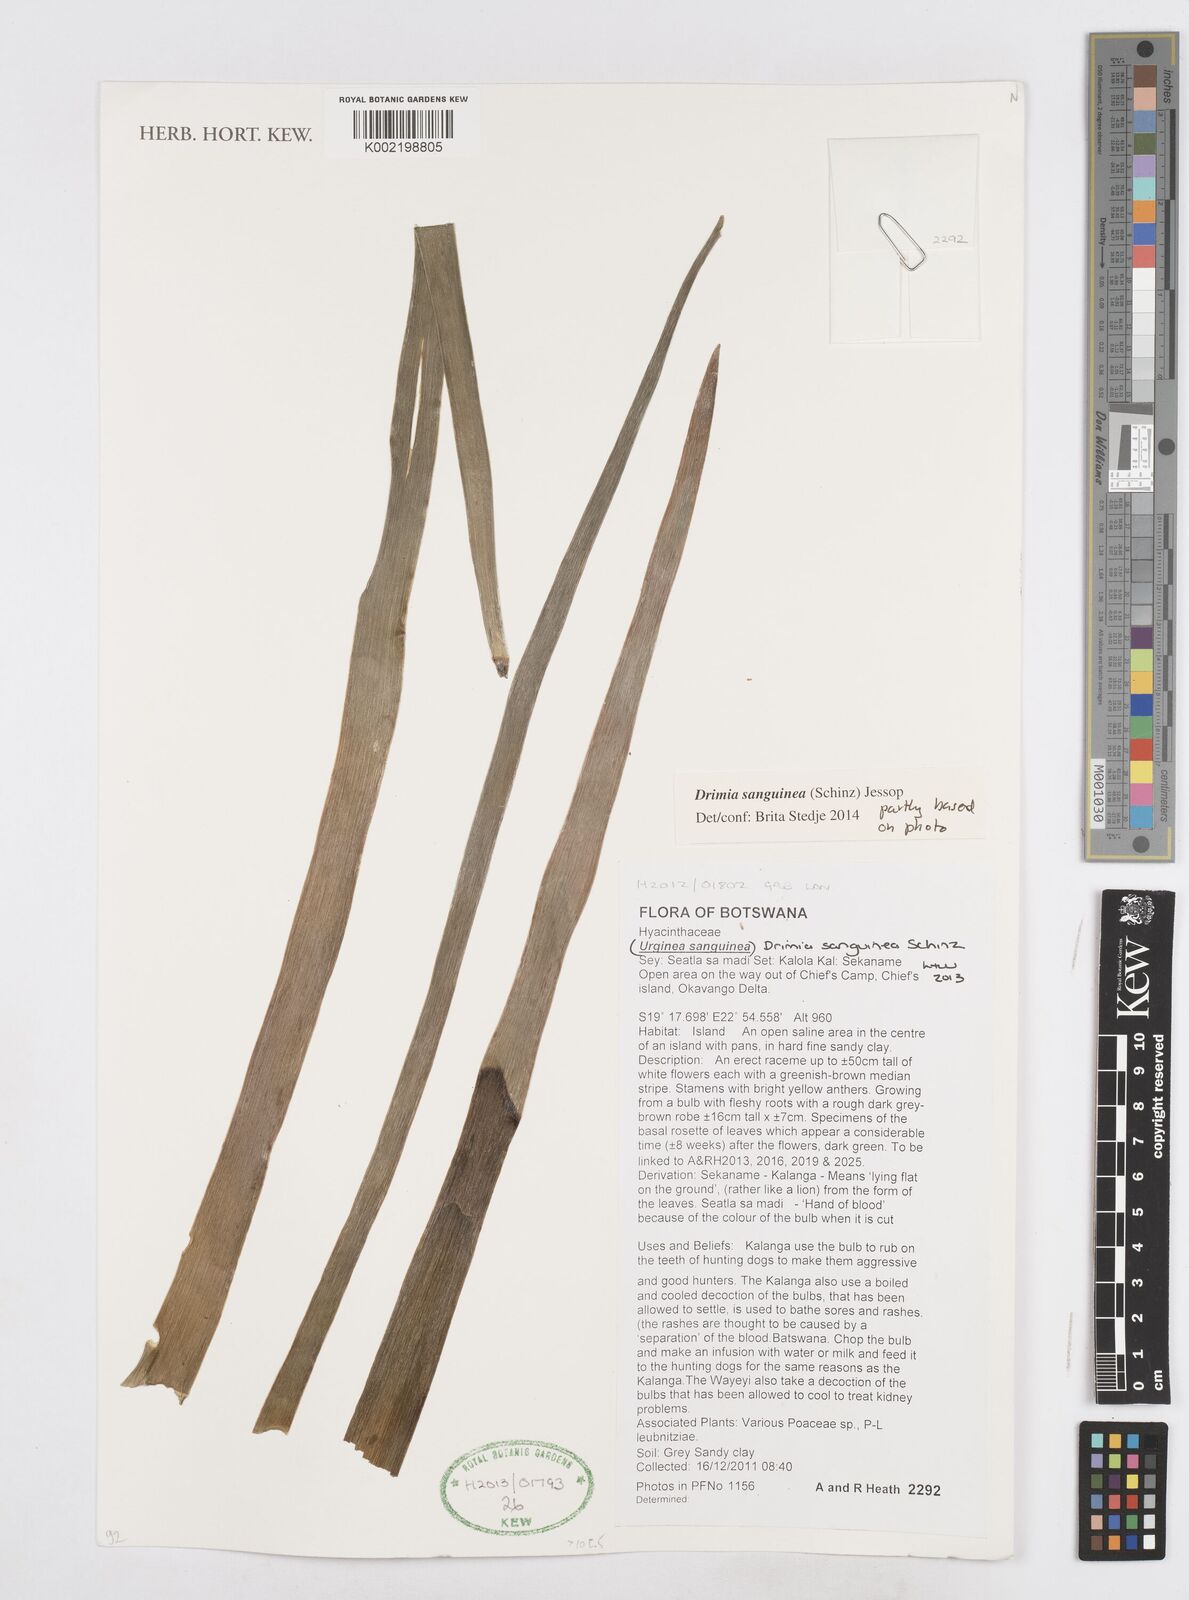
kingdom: Plantae
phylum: Tracheophyta
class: Liliopsida
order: Asparagales
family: Asparagaceae
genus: Drimia
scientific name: Drimia sanguinea
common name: Transvaal slangkop
